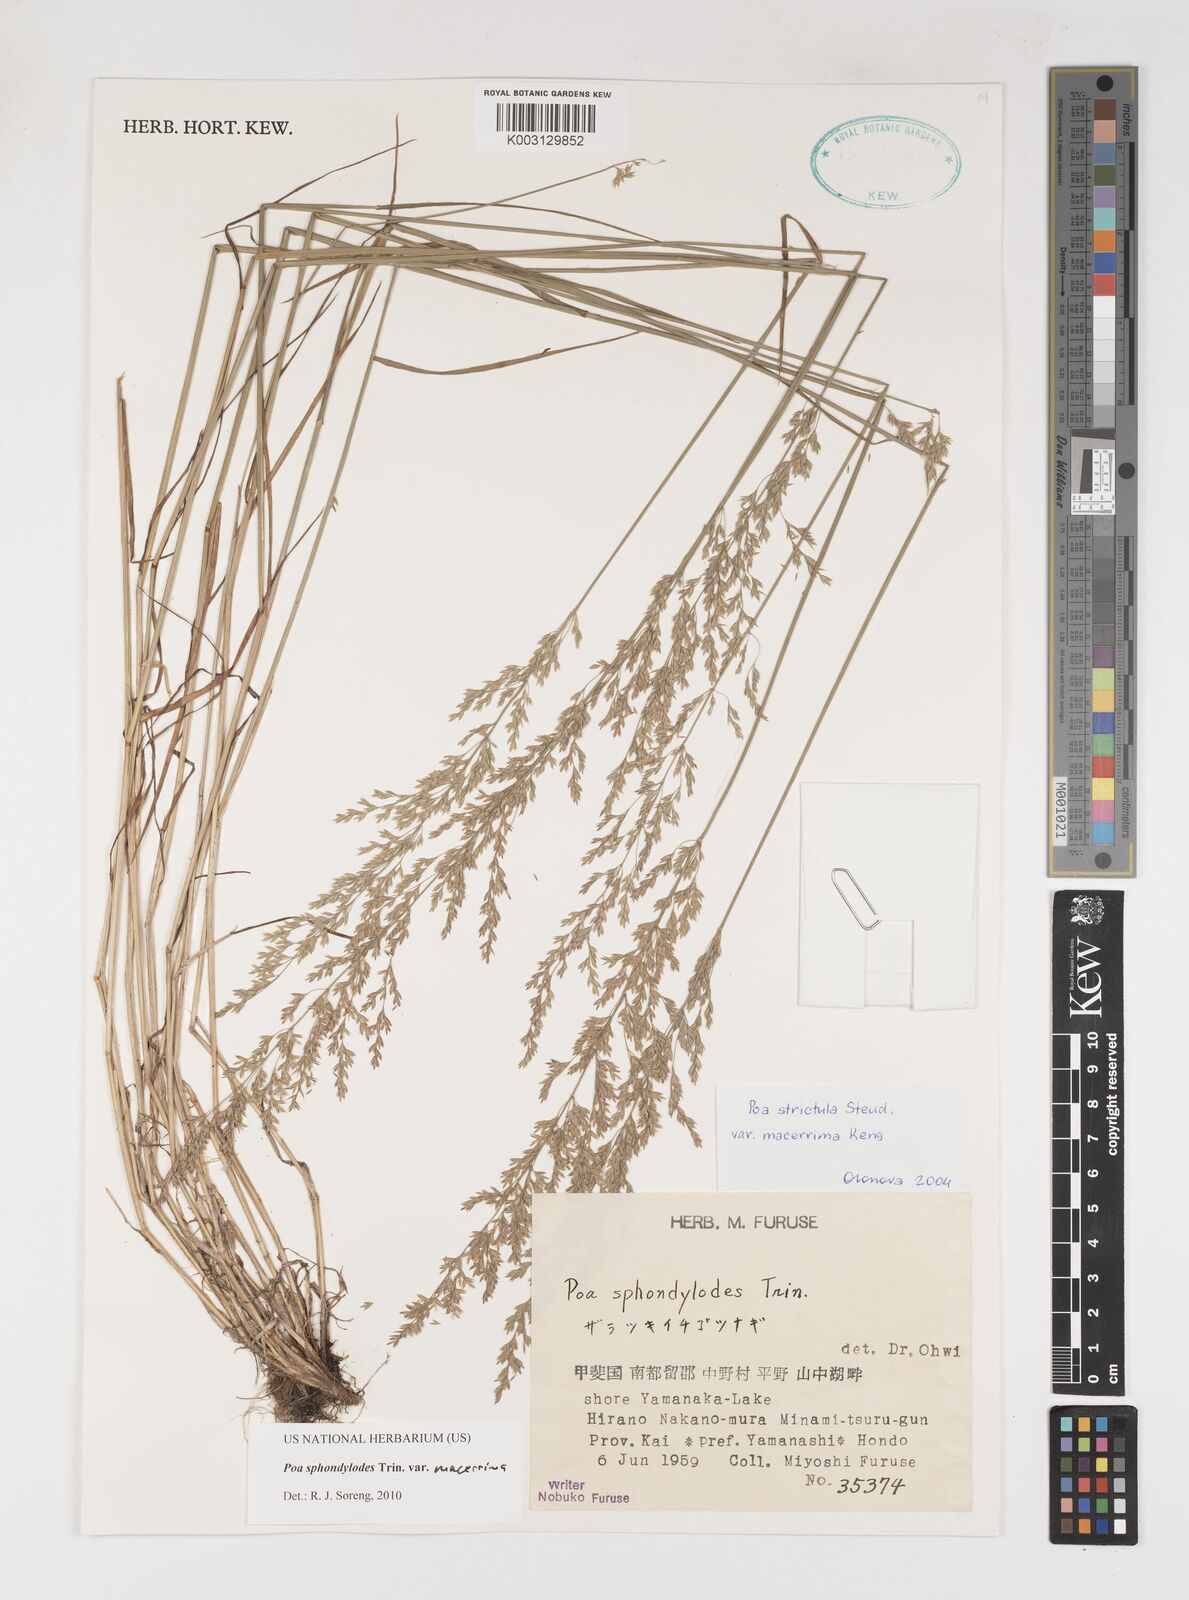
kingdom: Plantae
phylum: Tracheophyta
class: Liliopsida
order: Poales
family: Poaceae
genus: Poa
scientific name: Poa sphondylodes
